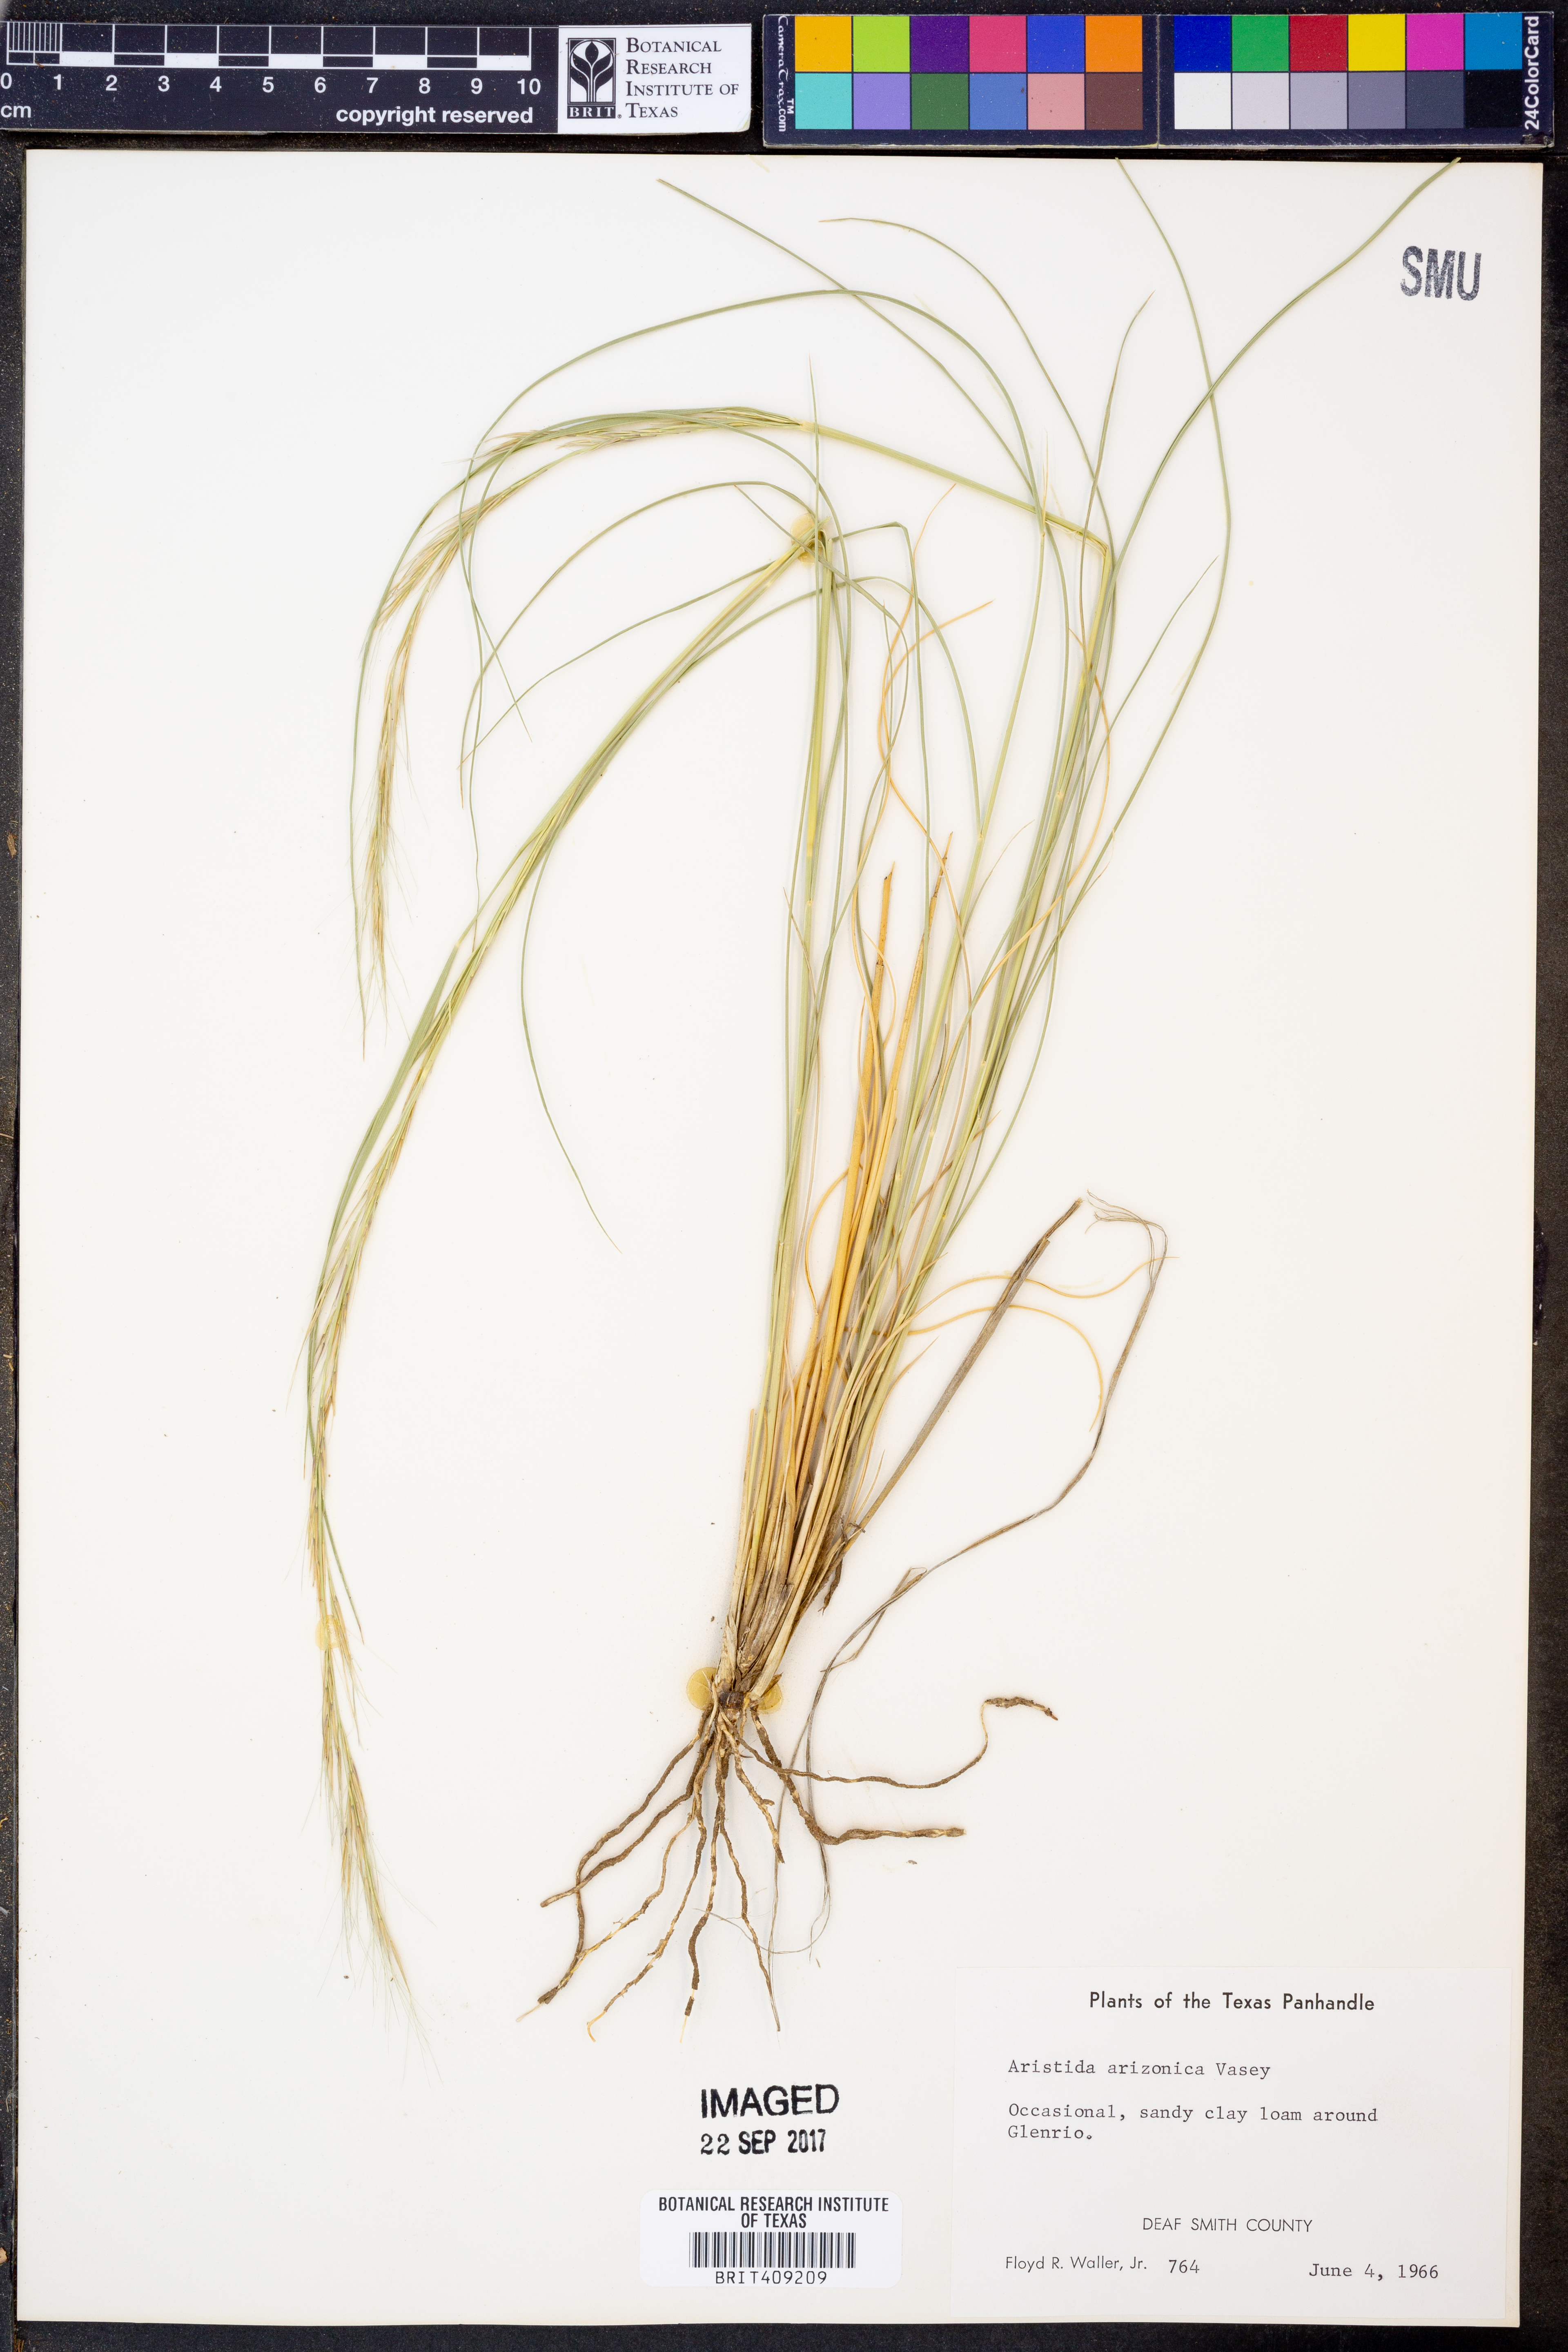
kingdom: Plantae
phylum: Tracheophyta
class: Liliopsida
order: Poales
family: Poaceae
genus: Aristida
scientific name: Aristida arizonica
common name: Arizona threeawn
